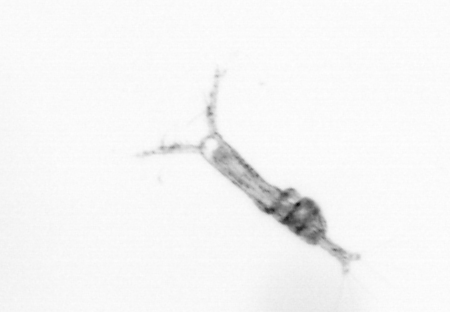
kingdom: Animalia
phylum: Arthropoda
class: Copepoda
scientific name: Copepoda
